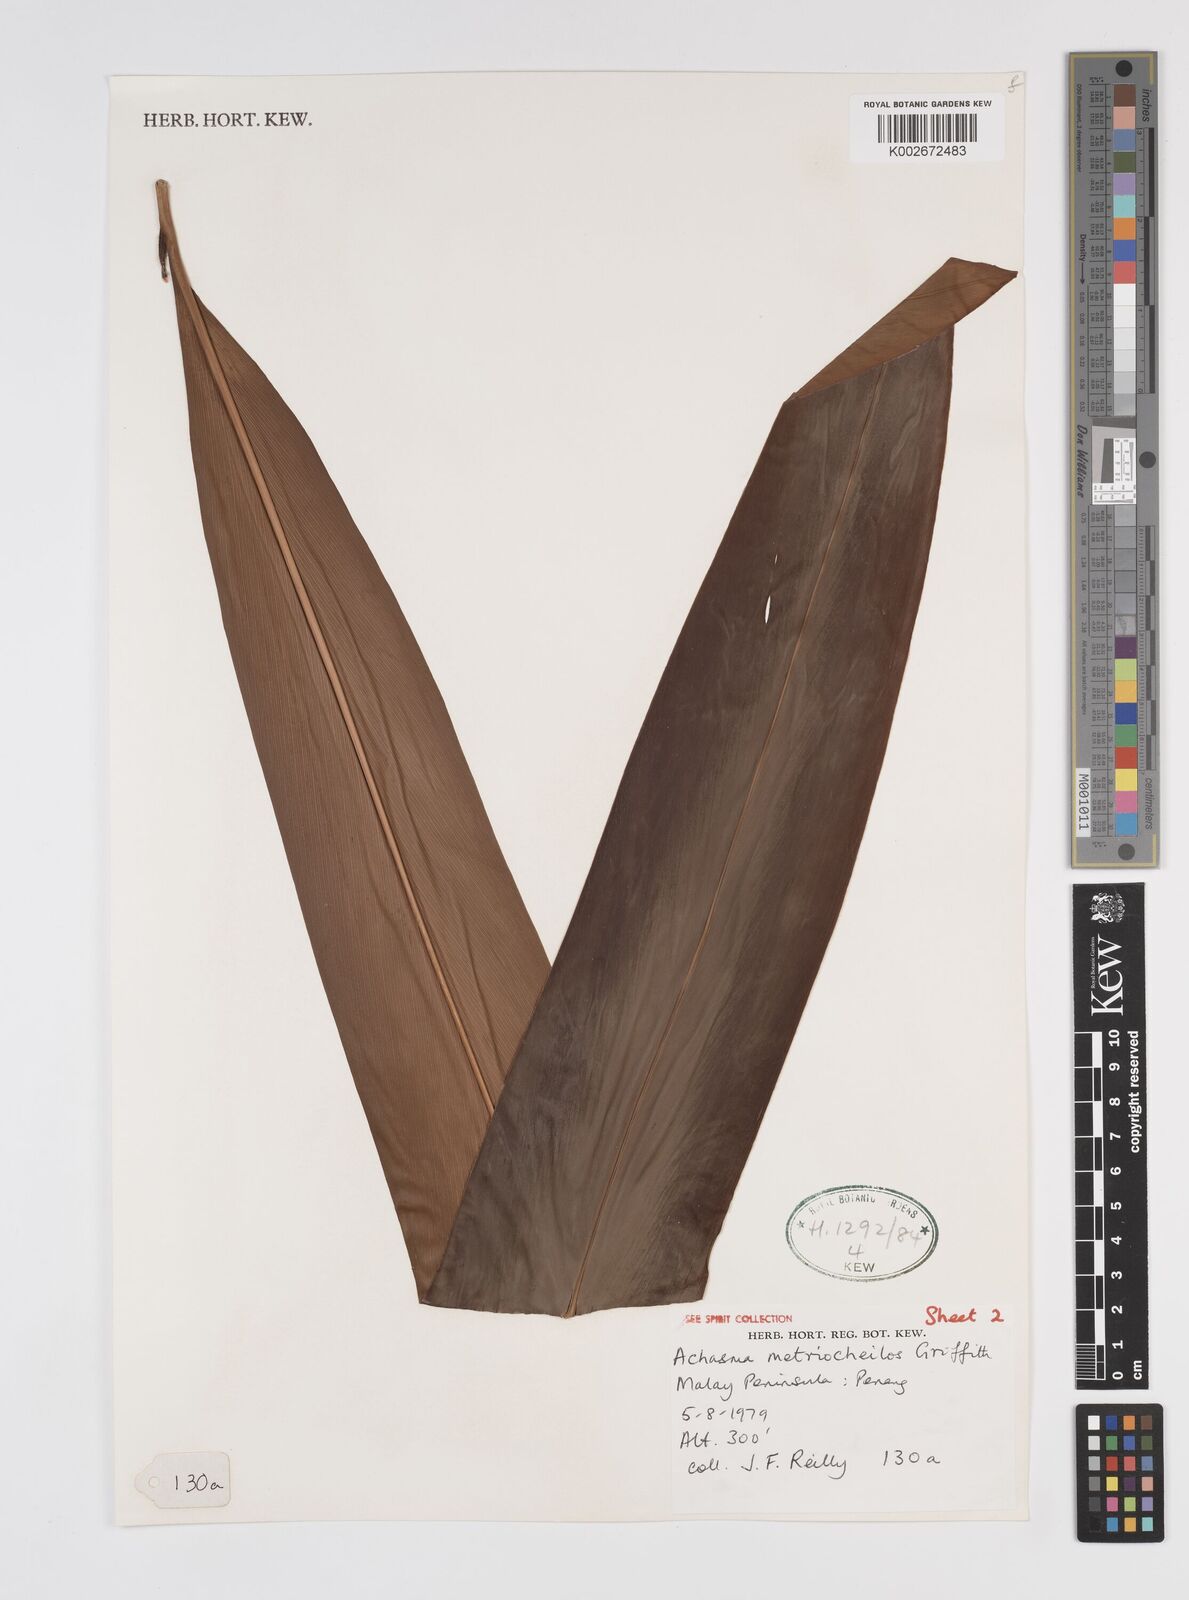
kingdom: Plantae
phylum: Tracheophyta
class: Liliopsida
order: Zingiberales
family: Zingiberaceae
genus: Etlingera
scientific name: Etlingera metriocheilos
